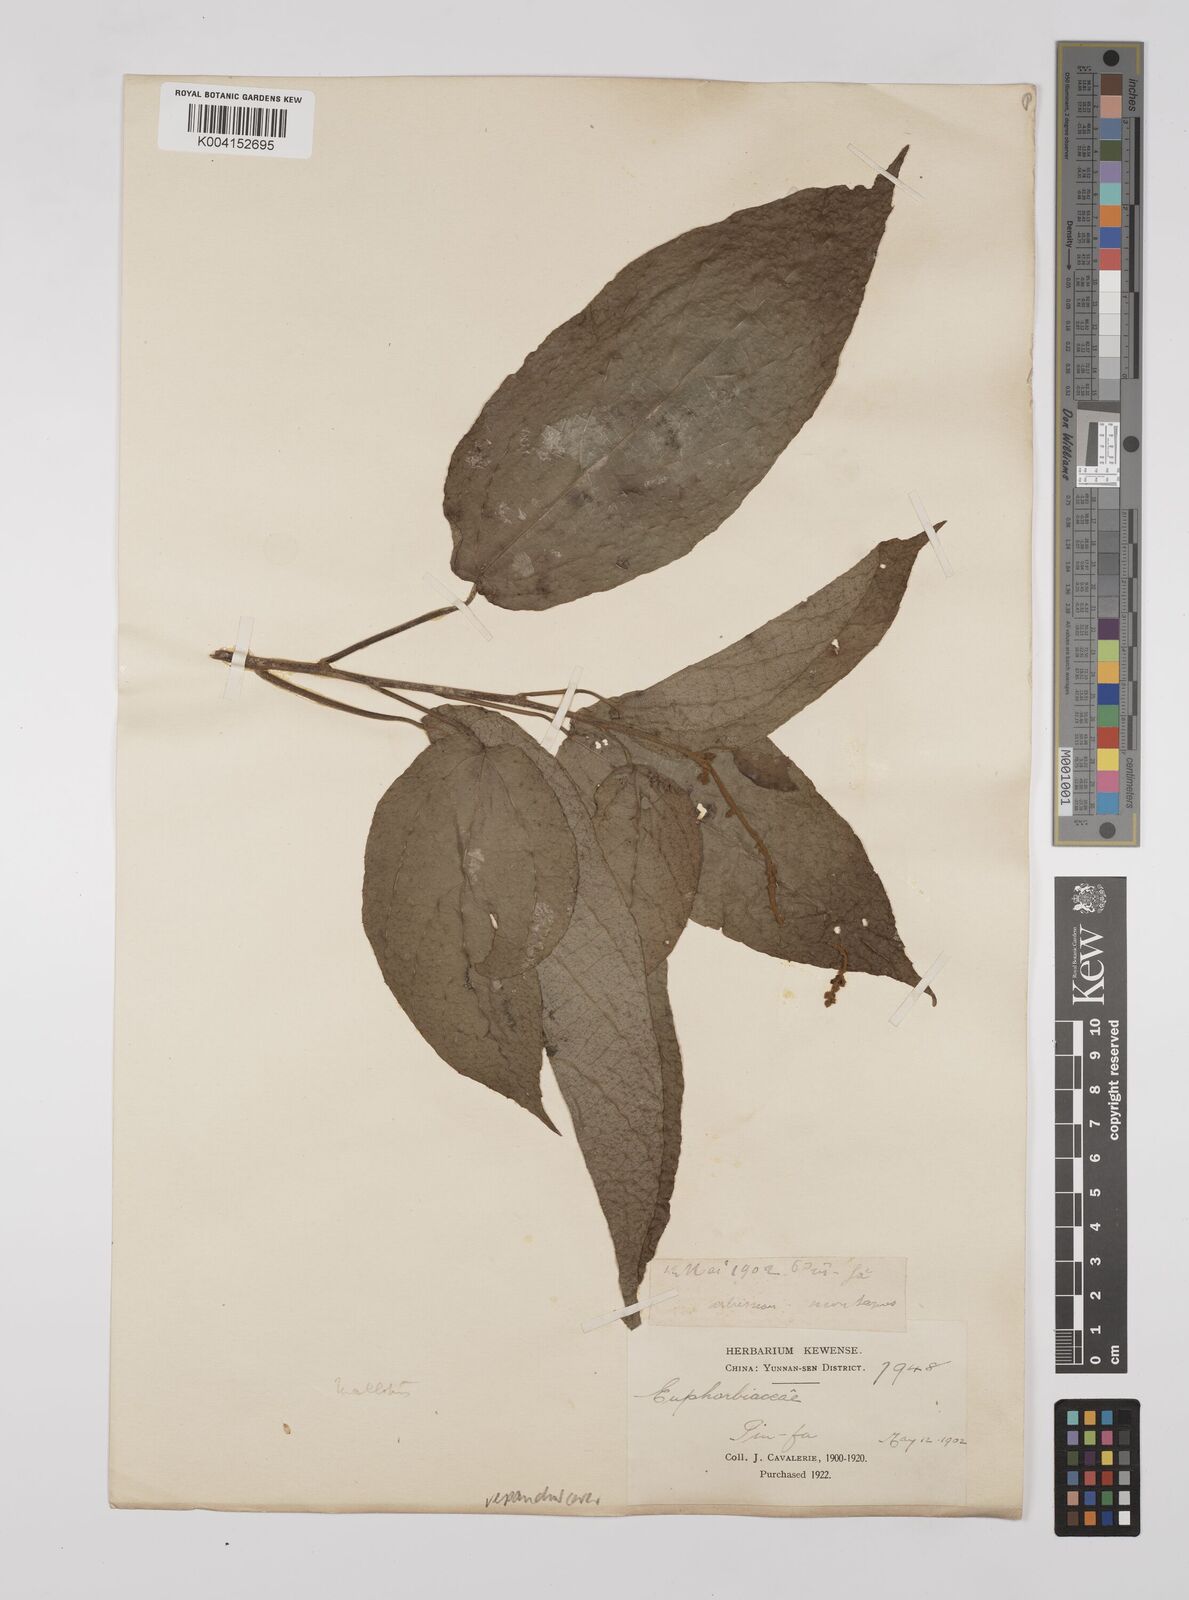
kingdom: Plantae
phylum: Tracheophyta
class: Magnoliopsida
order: Malpighiales
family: Euphorbiaceae
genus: Mallotus
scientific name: Mallotus repandus
